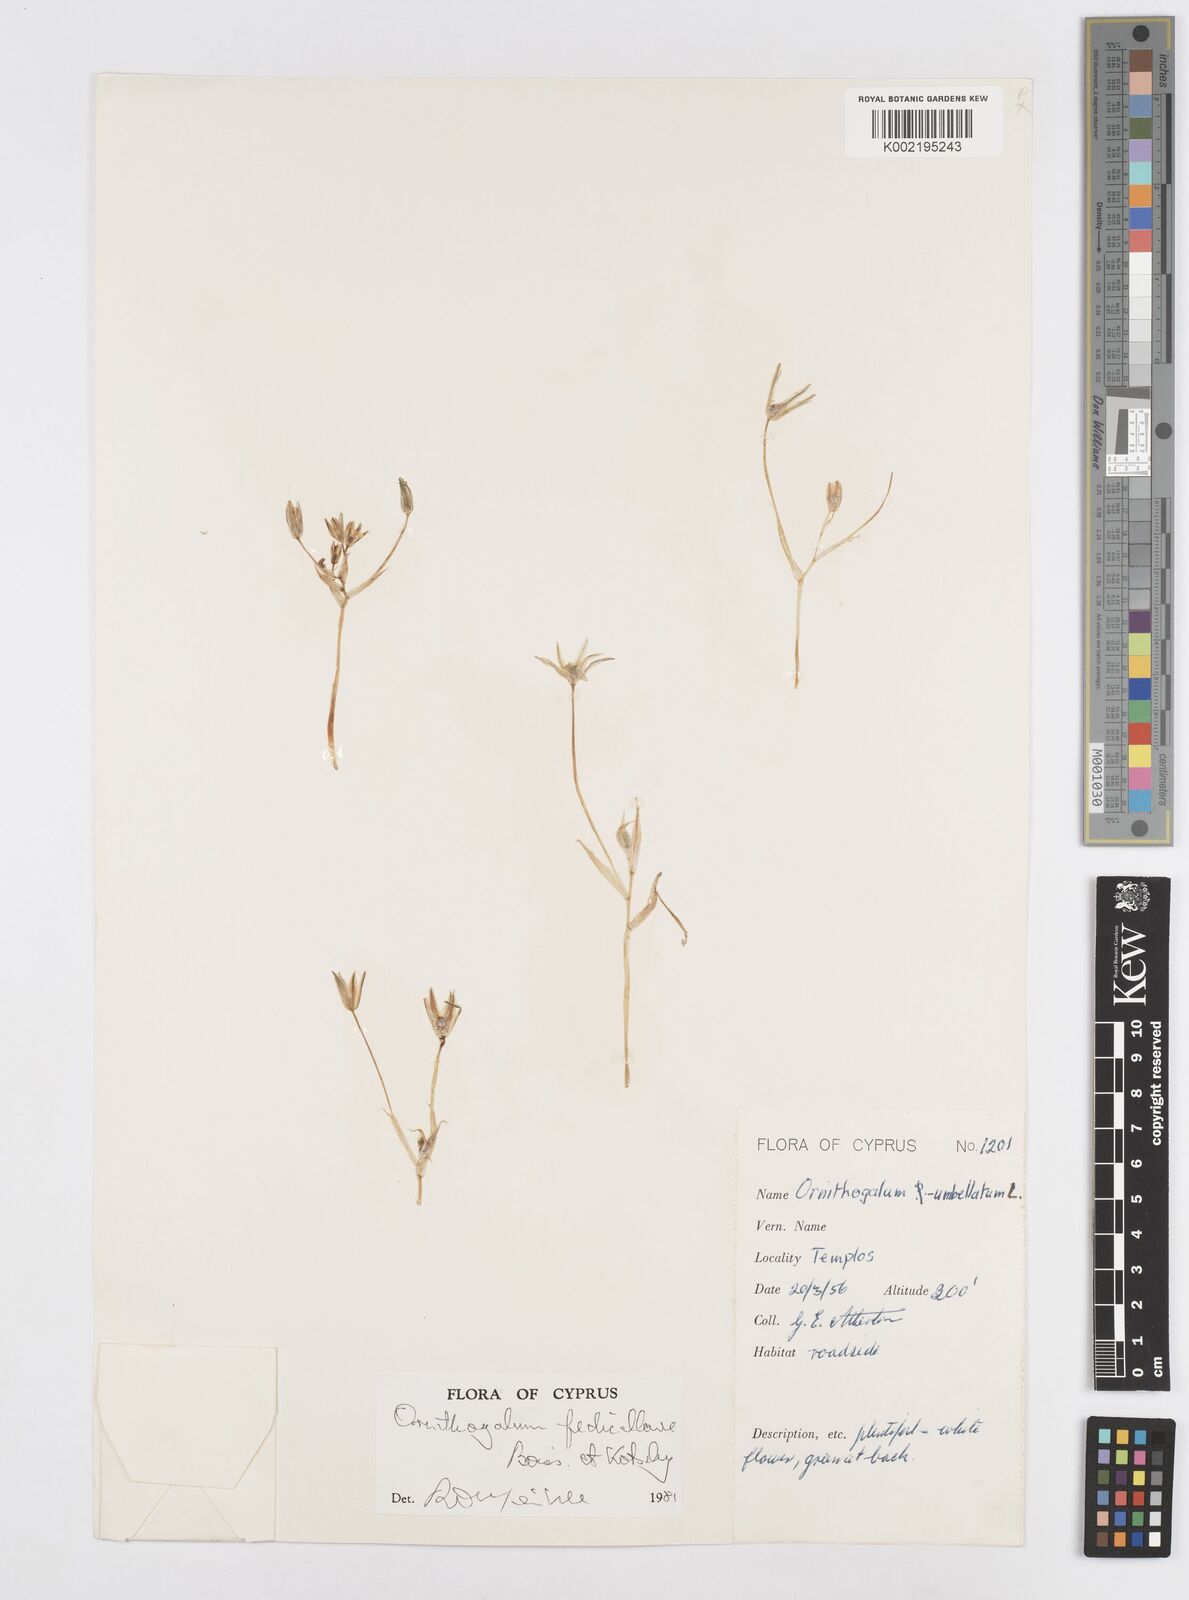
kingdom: Plantae
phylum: Tracheophyta
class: Liliopsida
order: Asparagales
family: Asparagaceae
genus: Ornithogalum
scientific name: Ornithogalum pedicellare
